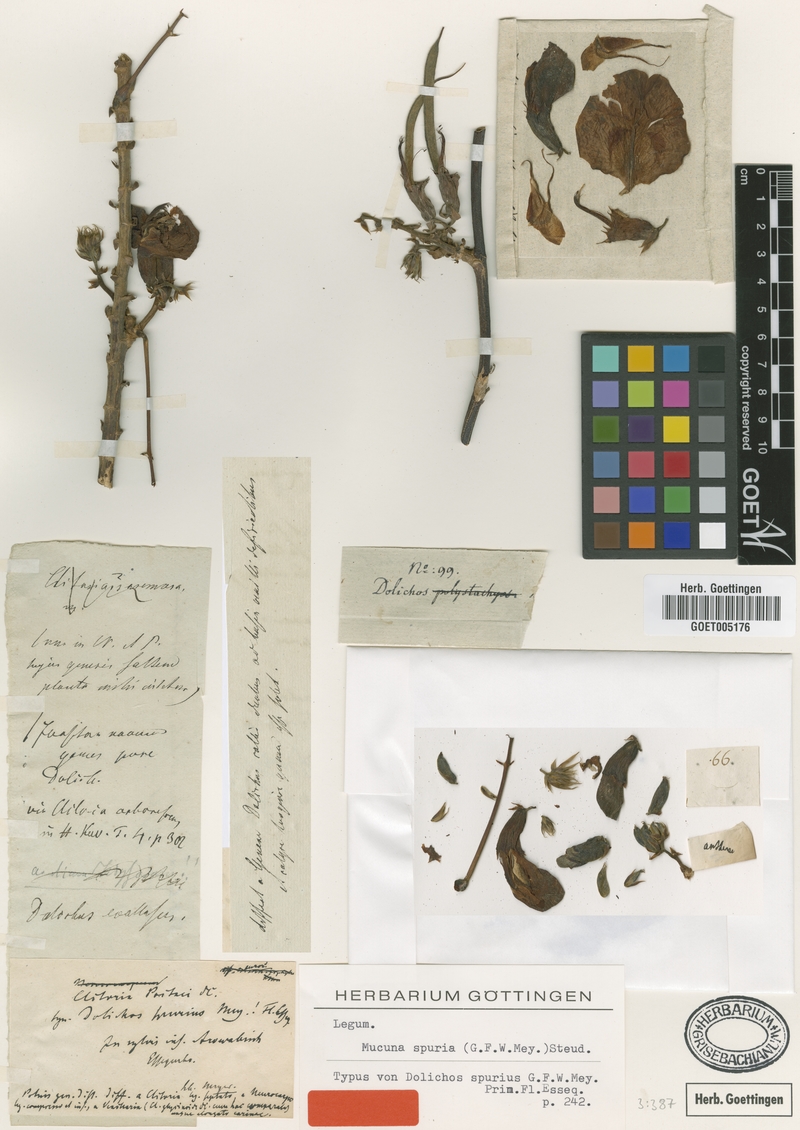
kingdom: Plantae
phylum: Tracheophyta
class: Magnoliopsida
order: Fabales
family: Fabaceae
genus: Clitoria
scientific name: Clitoria arborescens
